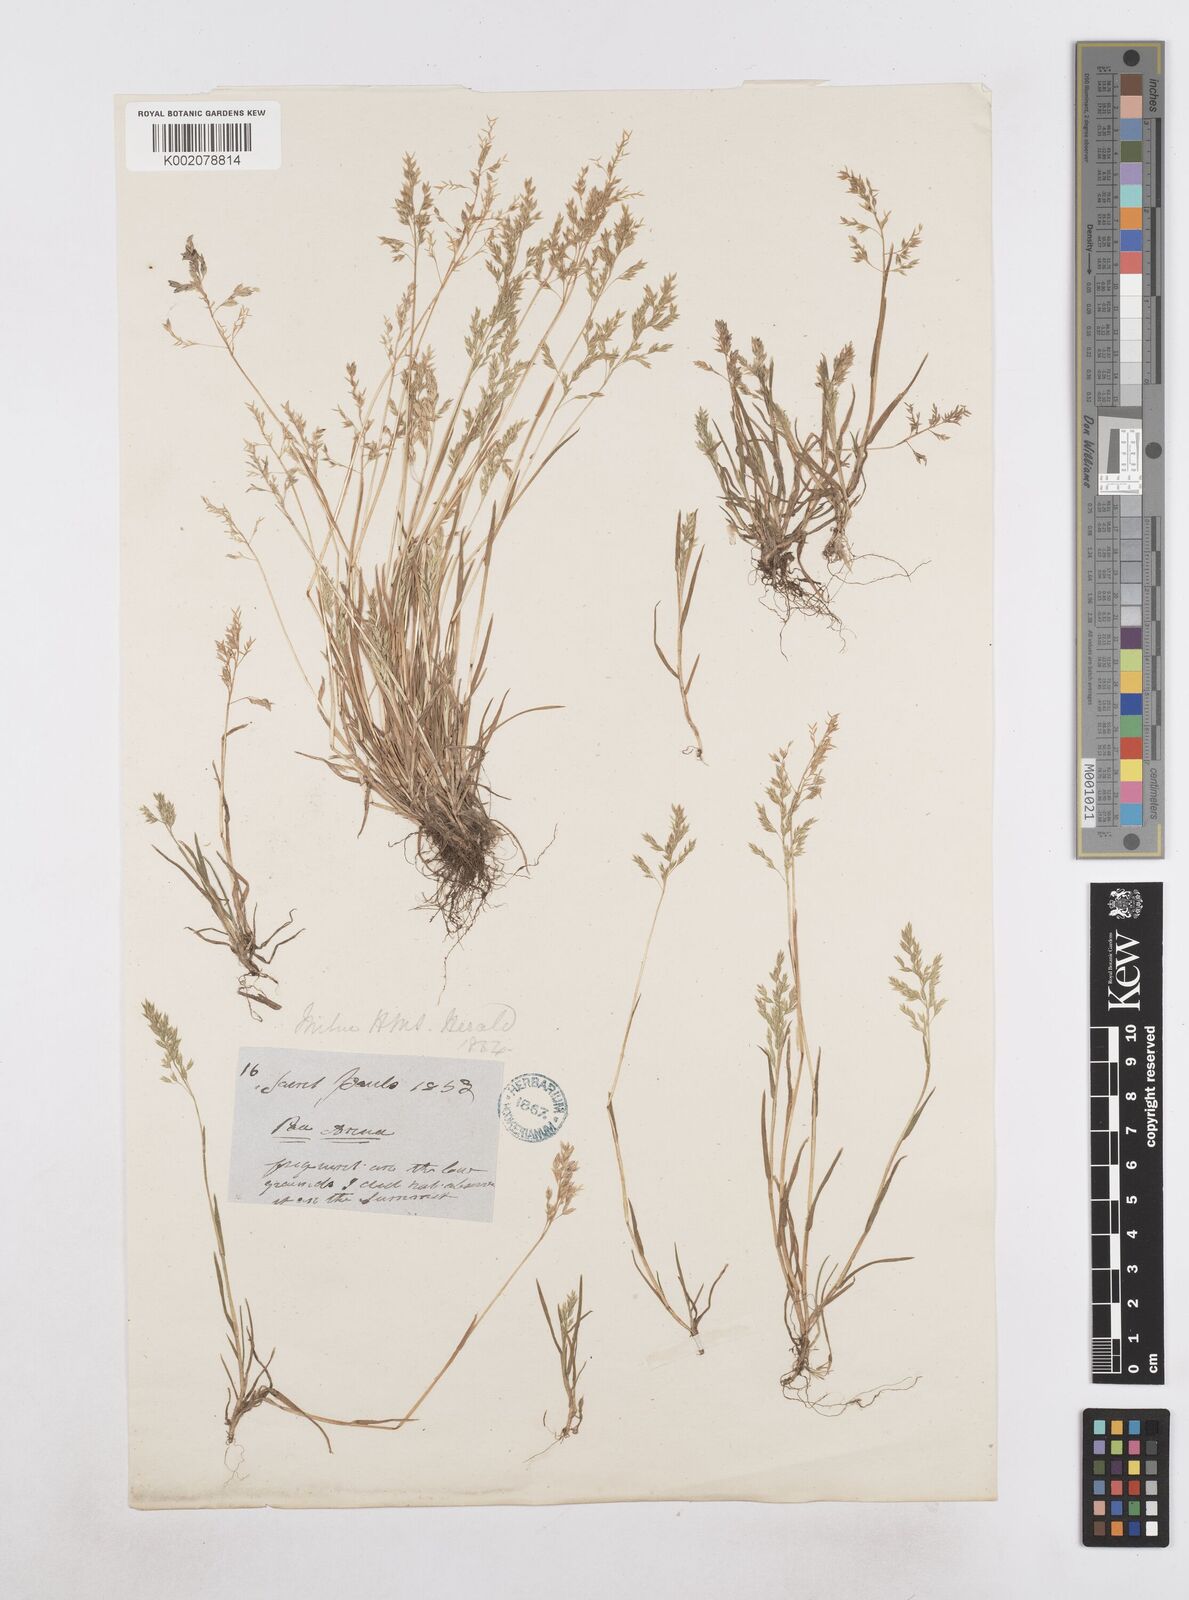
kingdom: Plantae
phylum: Tracheophyta
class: Liliopsida
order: Poales
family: Poaceae
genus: Poa
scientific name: Poa annua
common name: Annual bluegrass
